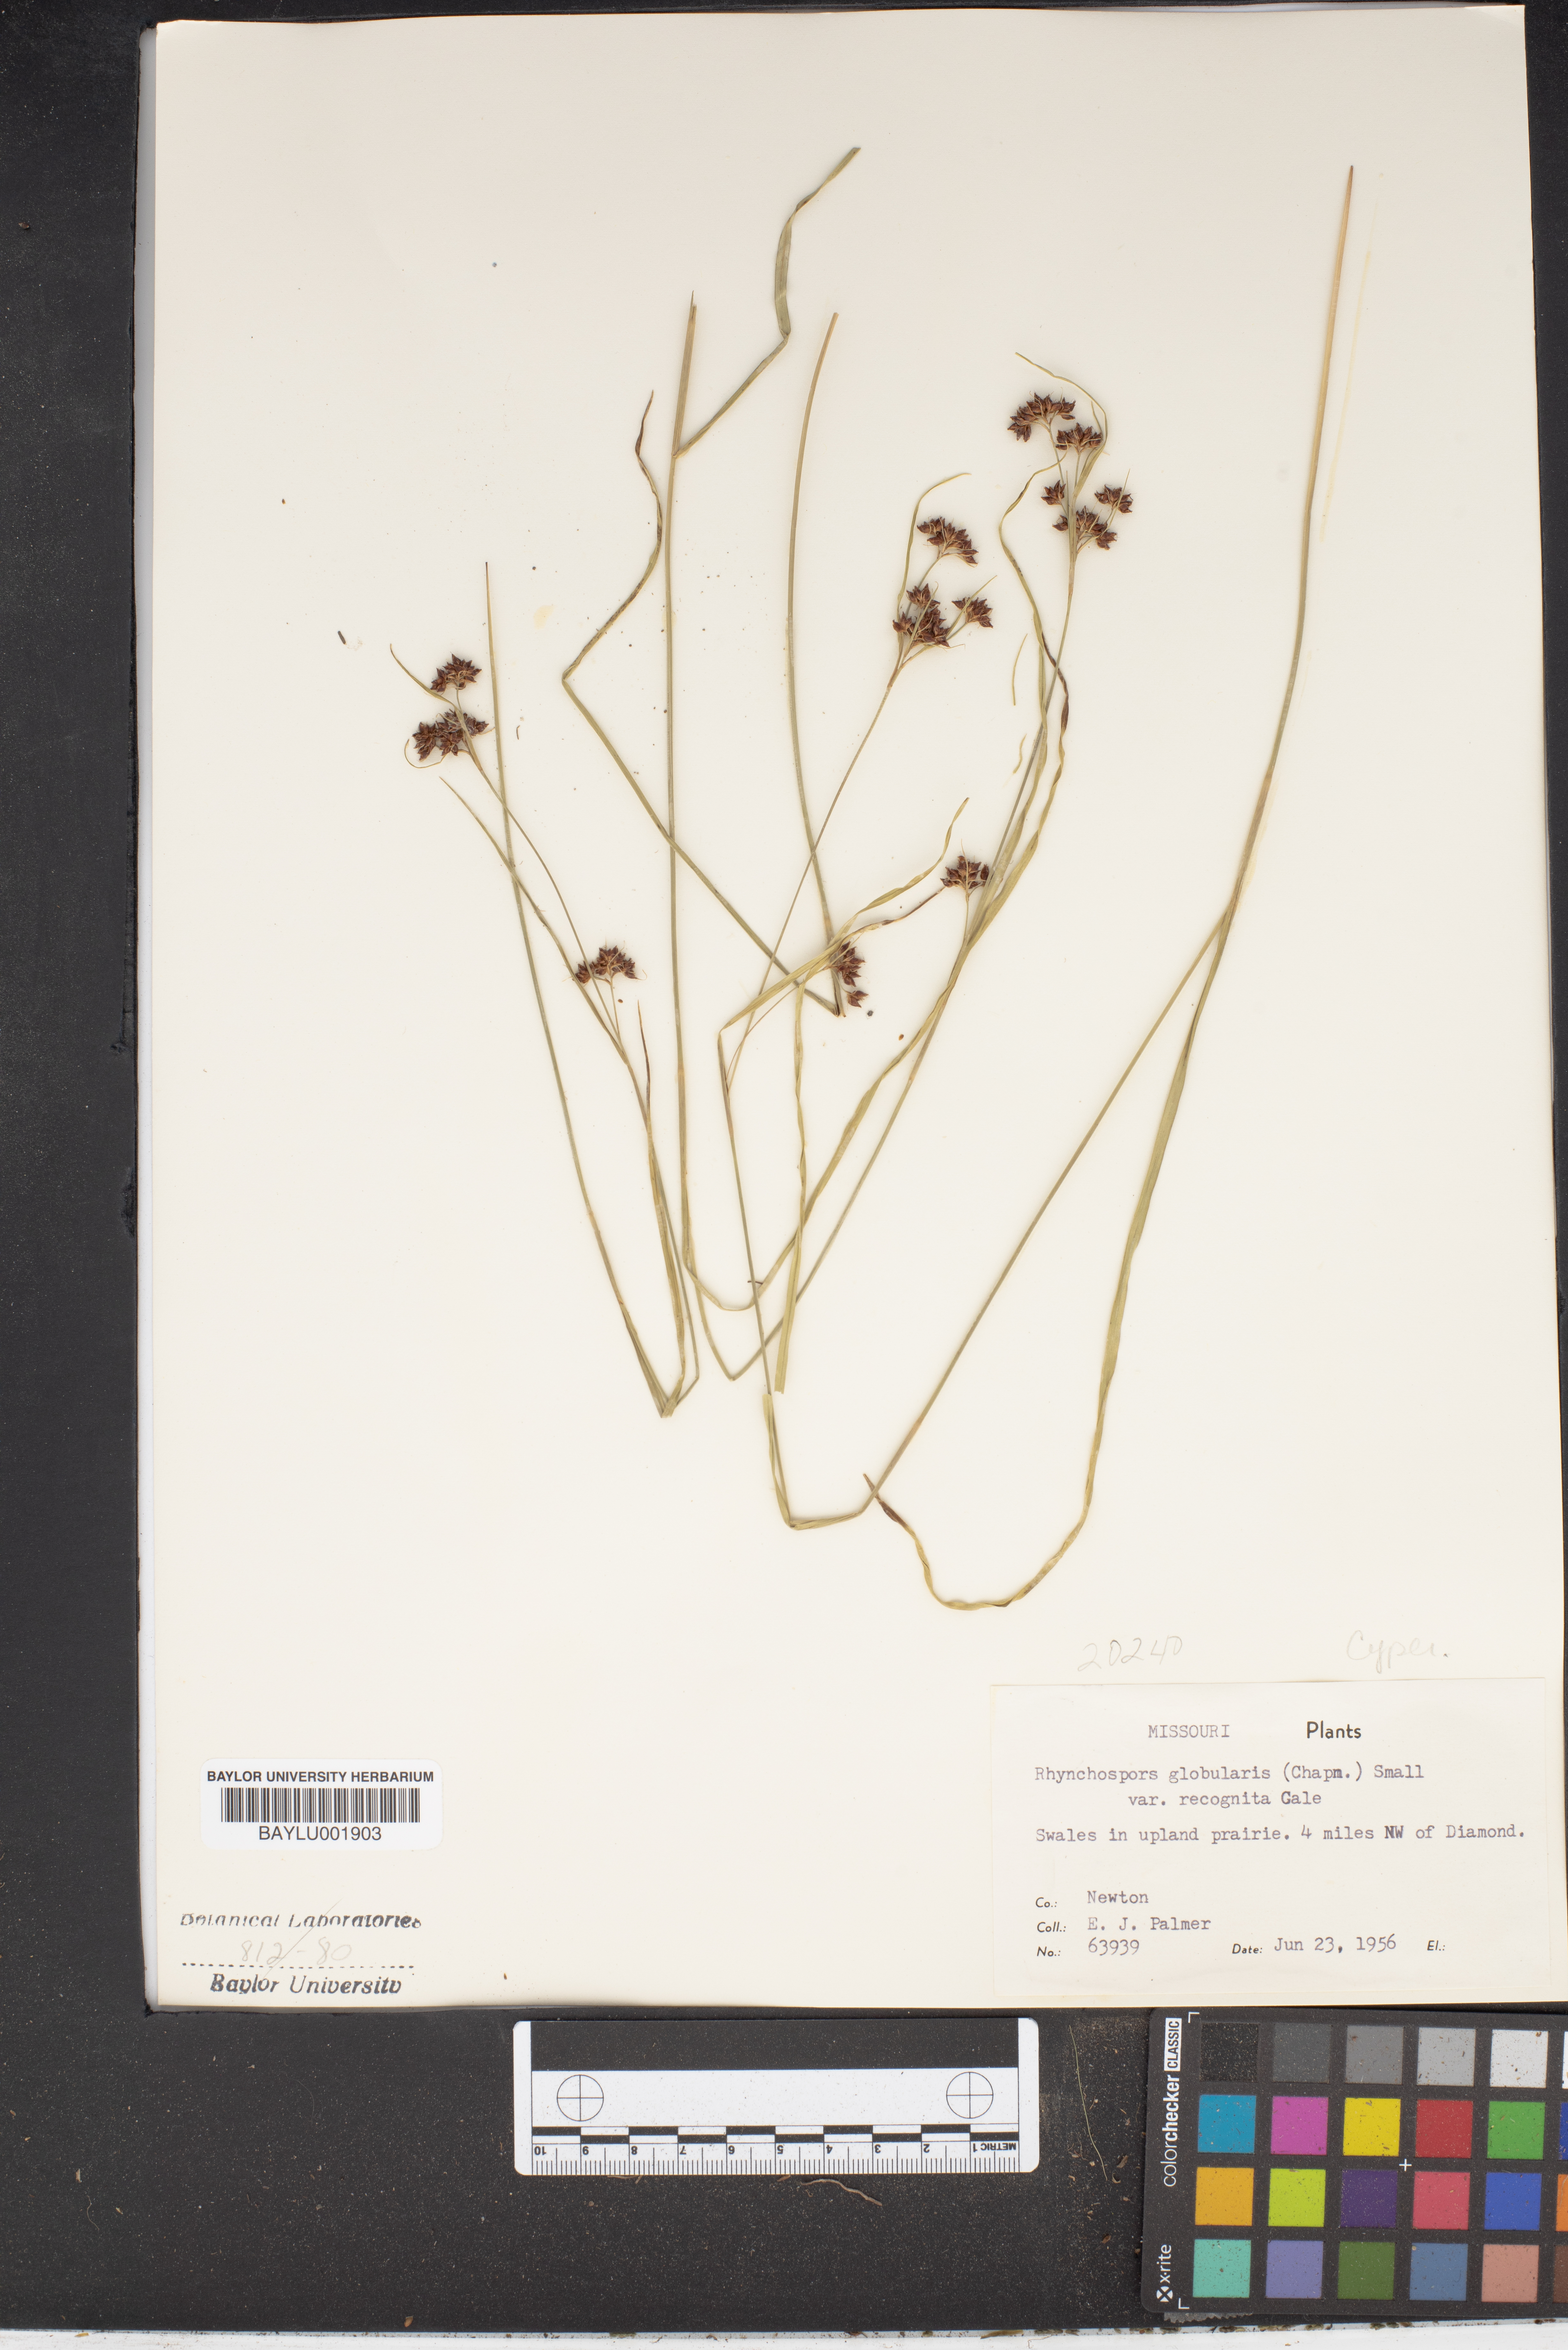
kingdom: Plantae
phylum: Tracheophyta
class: Liliopsida
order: Poales
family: Cyperaceae
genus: Rhynchospora
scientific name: Rhynchospora recognita
